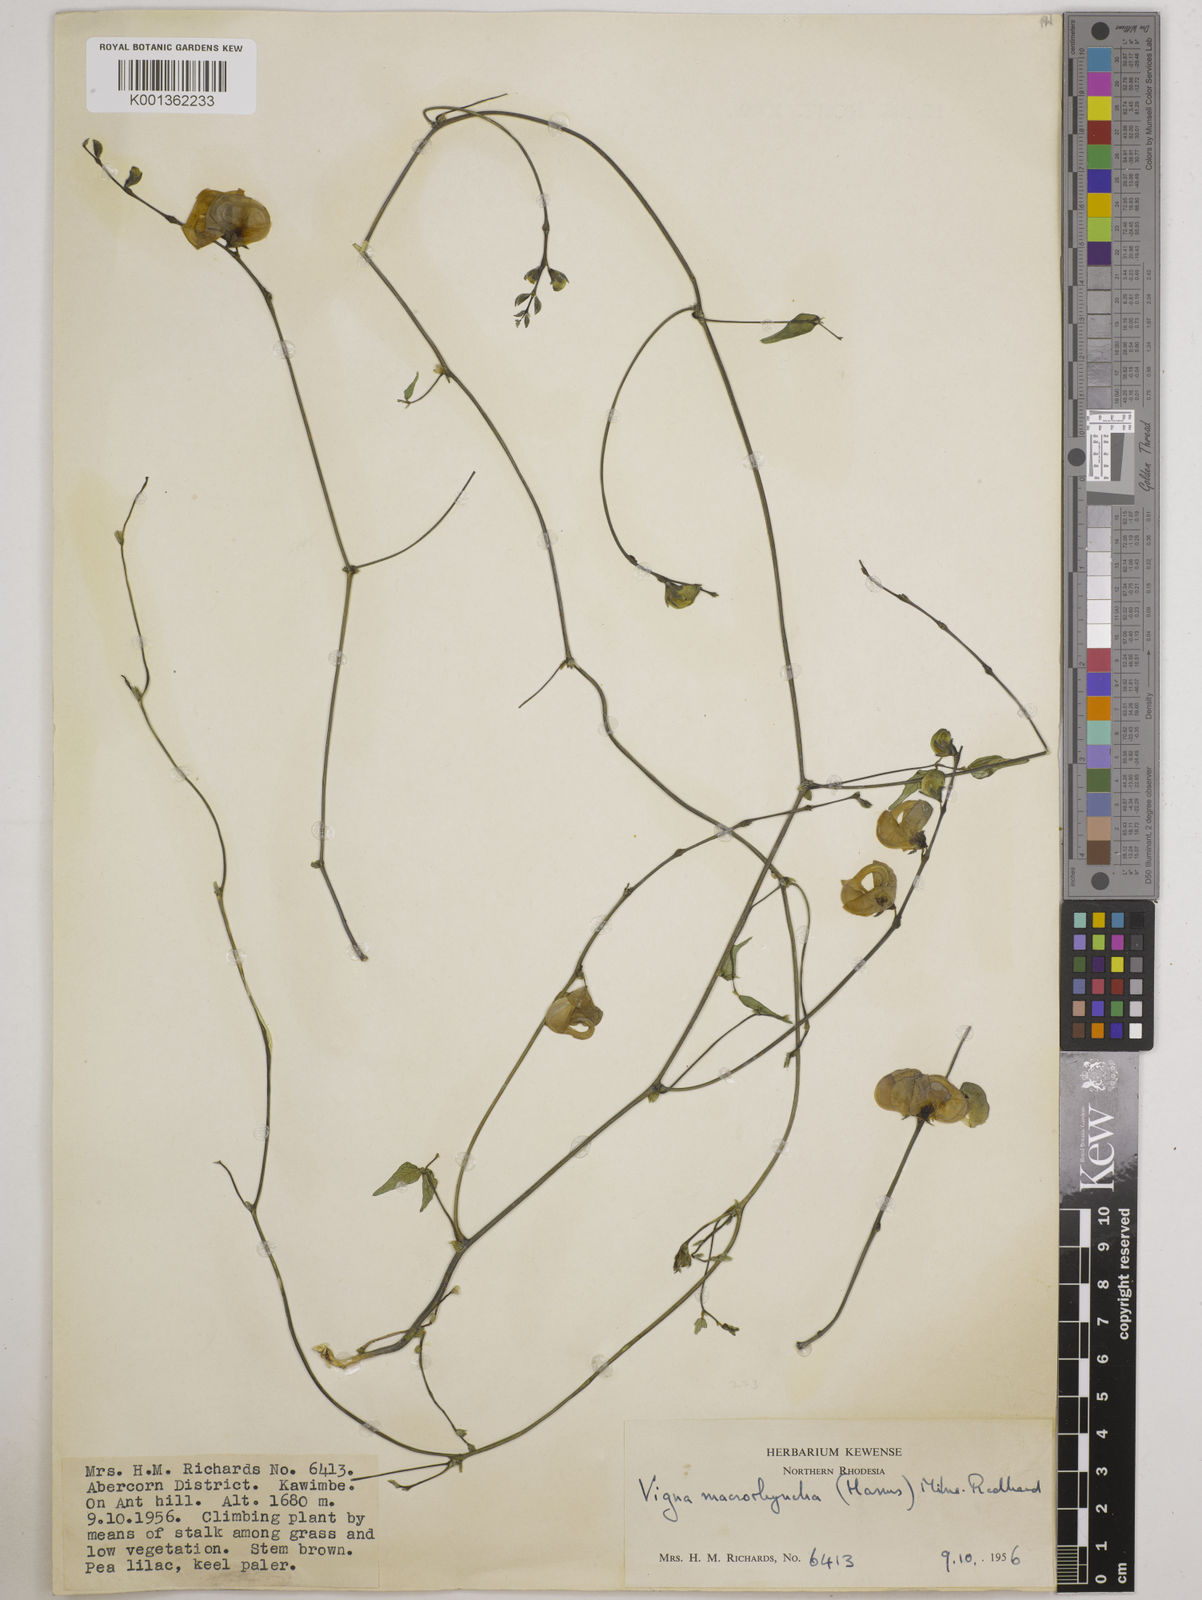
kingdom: Plantae
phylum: Tracheophyta
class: Magnoliopsida
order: Fabales
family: Fabaceae
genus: Wajira
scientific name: Wajira grahamiana
